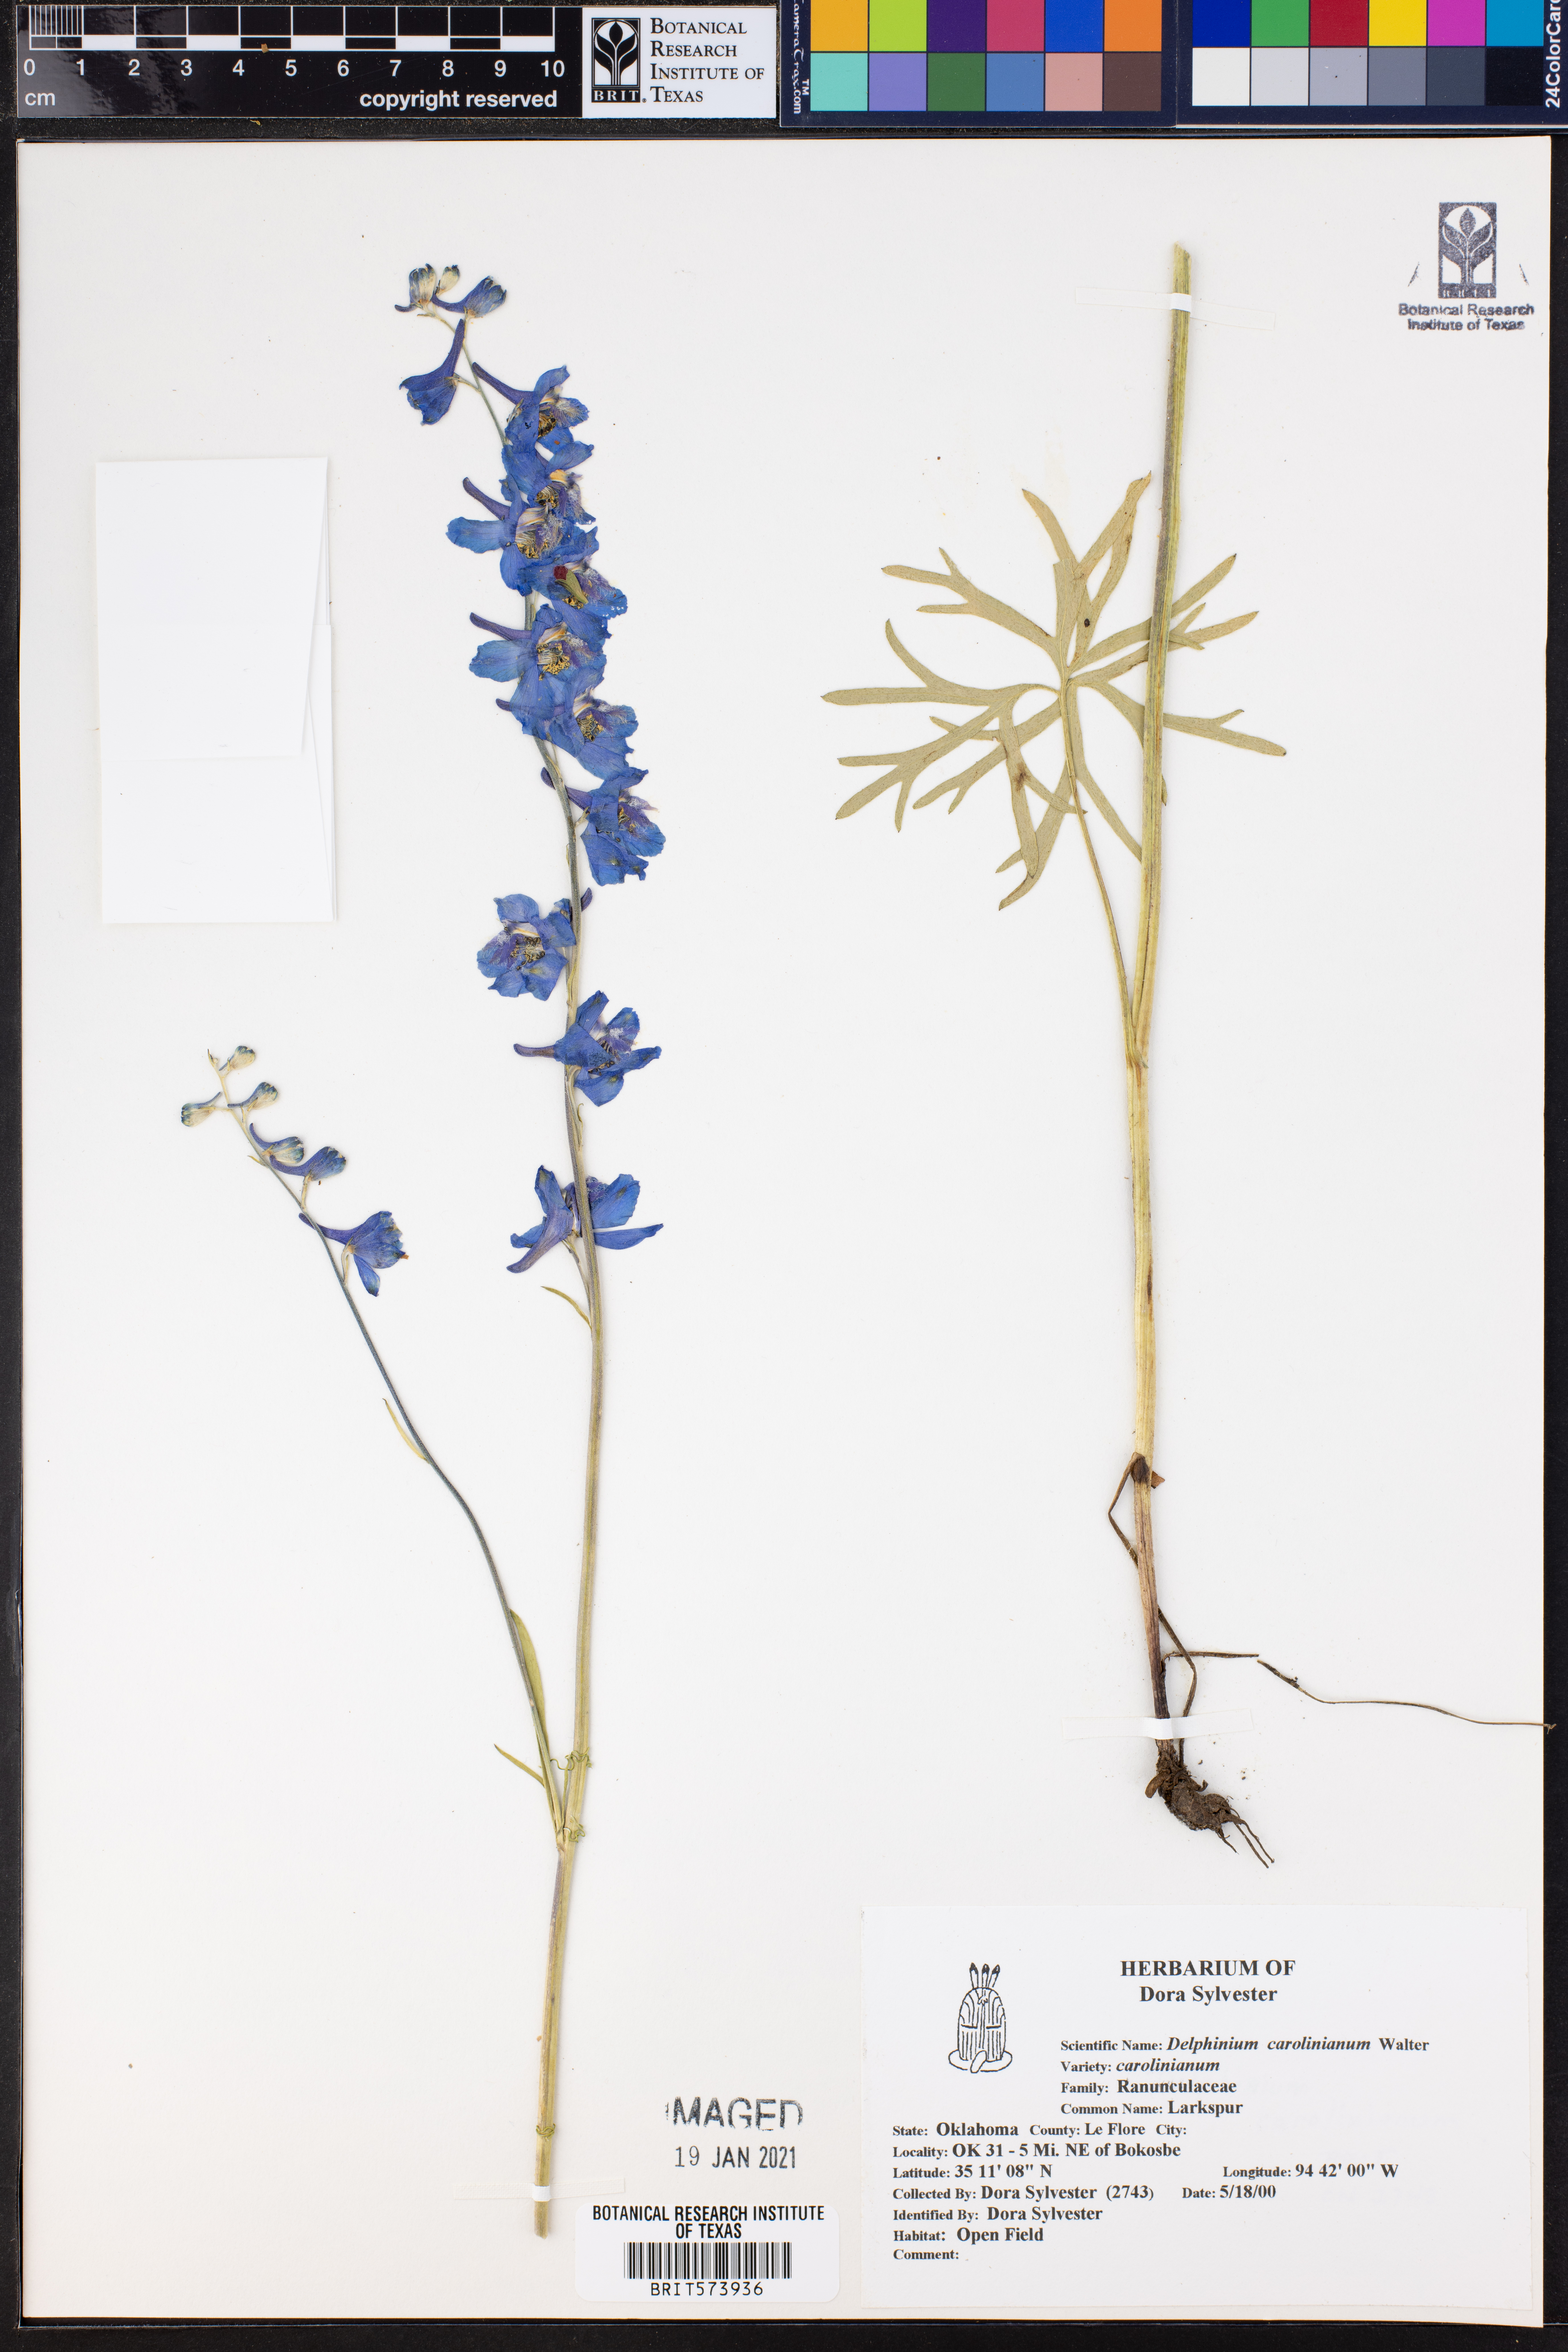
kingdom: Plantae
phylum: Tracheophyta
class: Magnoliopsida
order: Ranunculales
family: Ranunculaceae
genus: Delphinium
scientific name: Delphinium carolinianum
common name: Carolina larkspur
